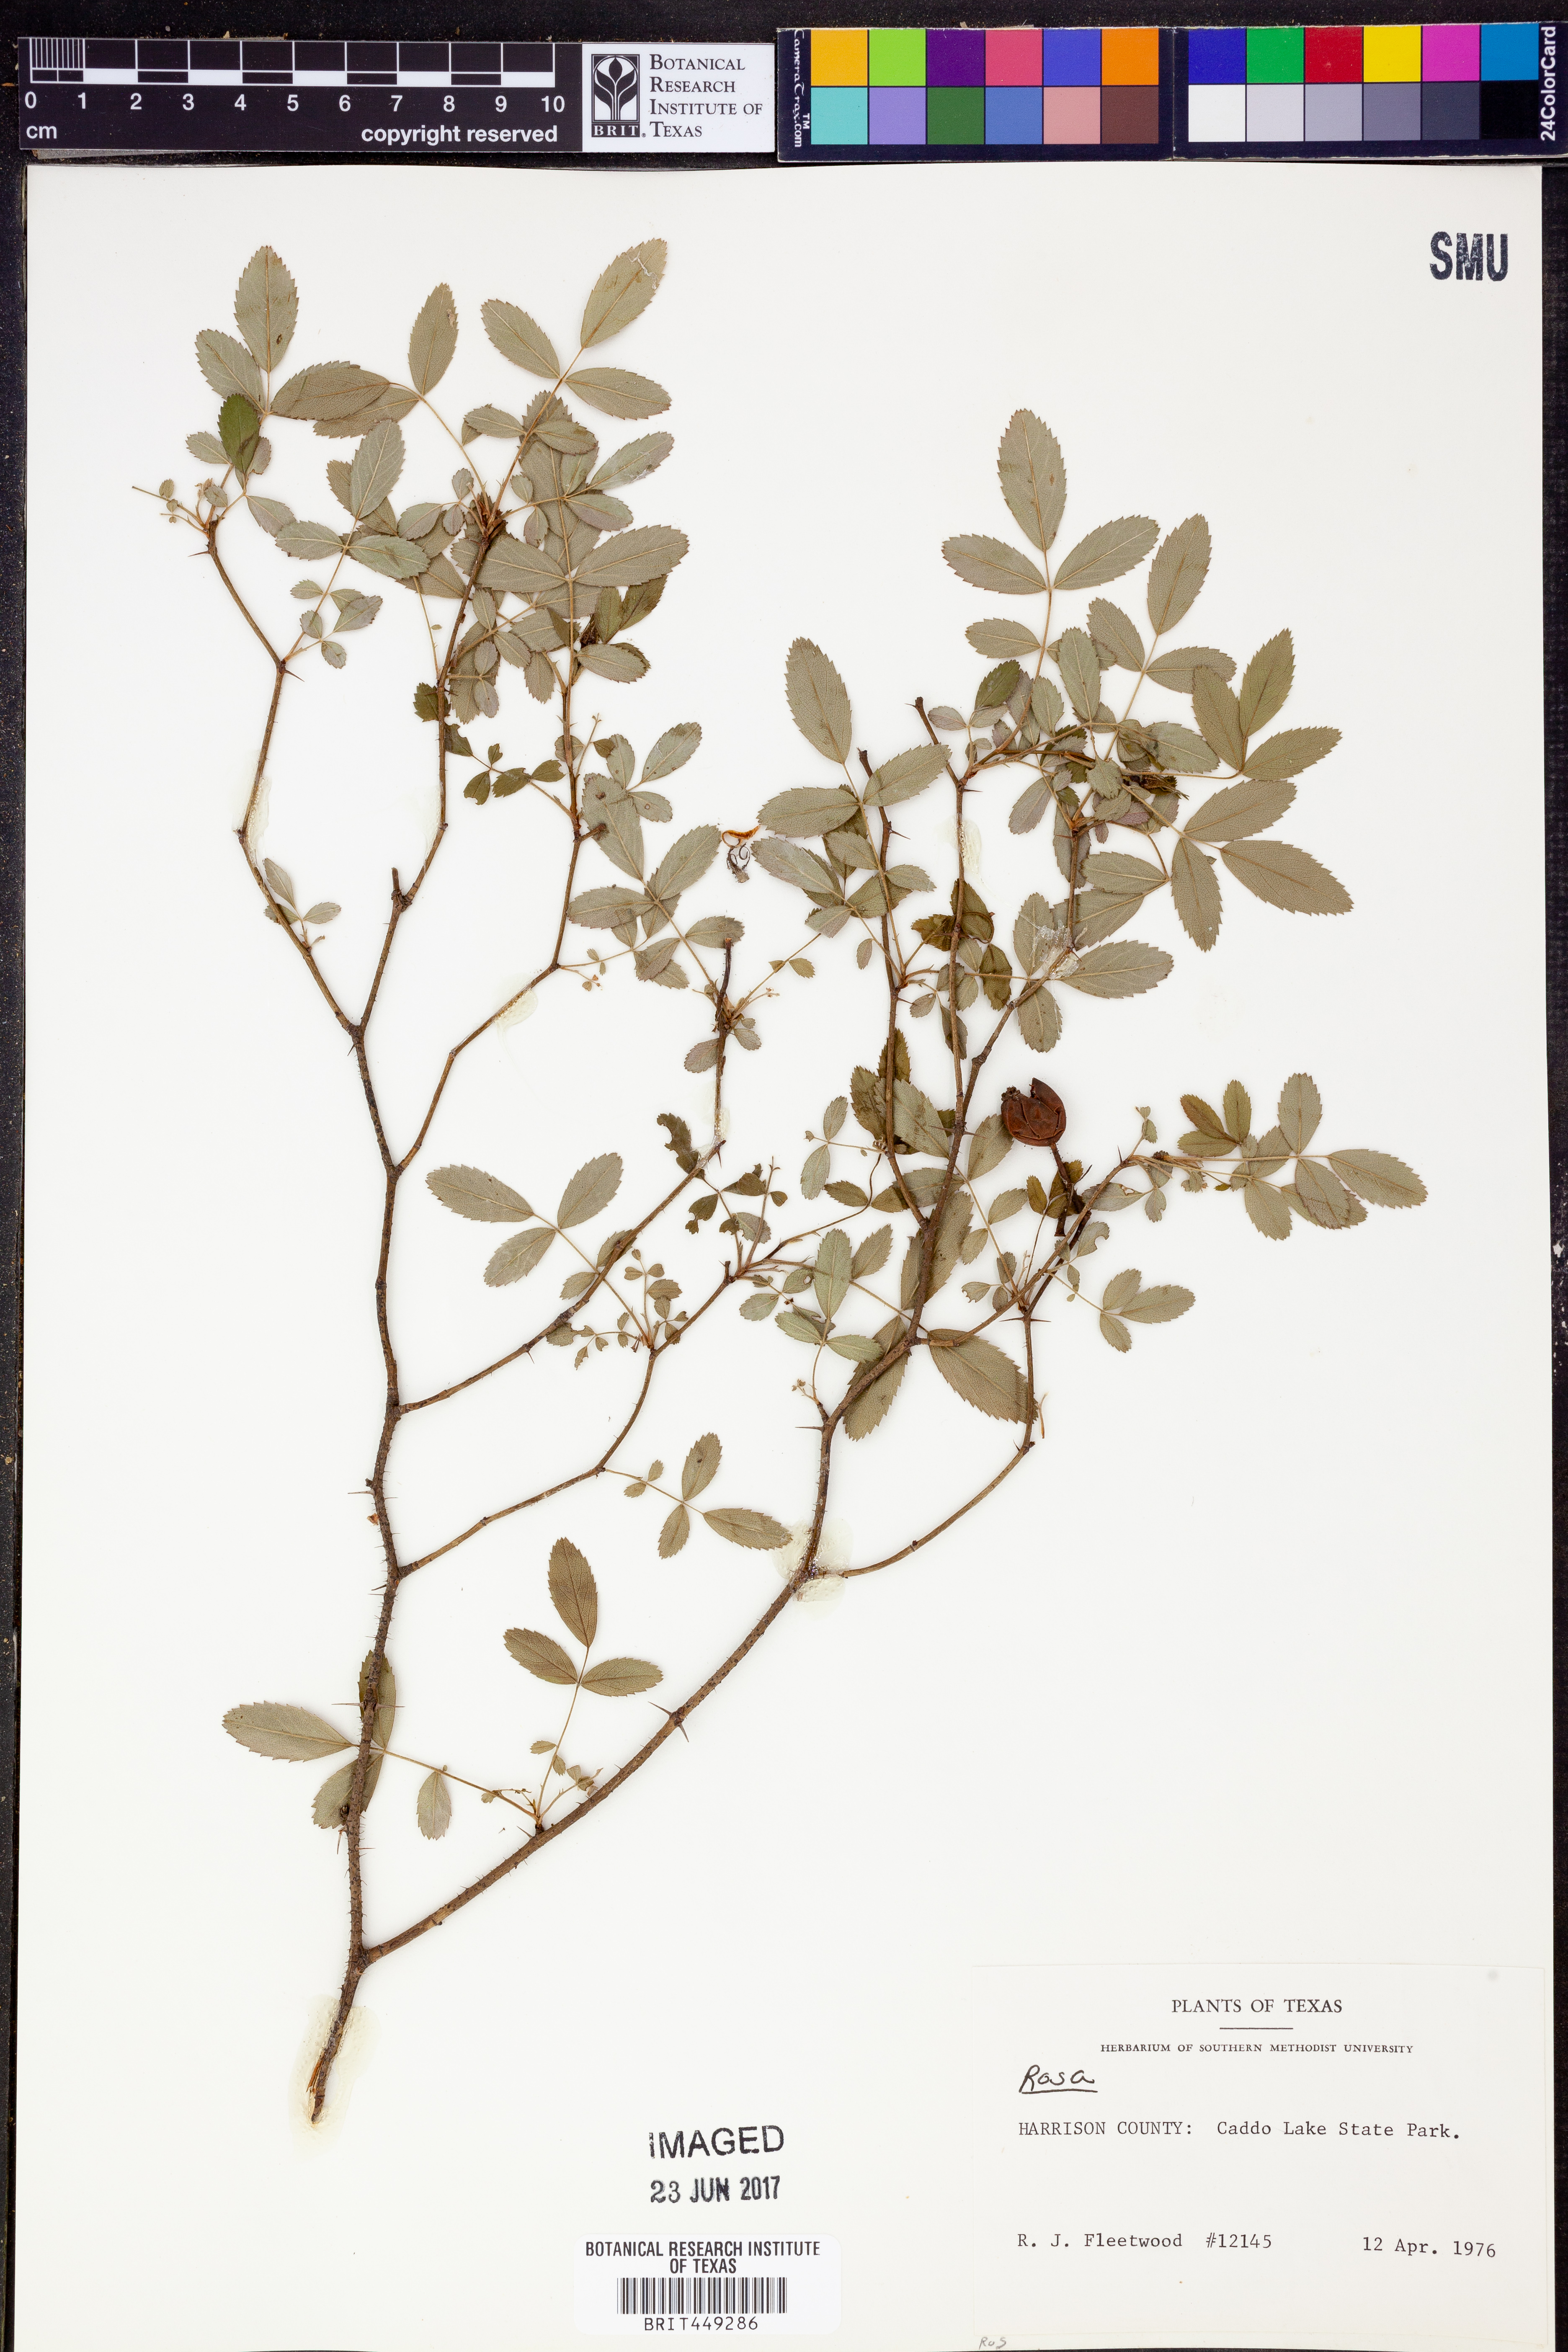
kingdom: Plantae
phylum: Tracheophyta
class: Magnoliopsida
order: Rosales
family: Rosaceae
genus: Rosa
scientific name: Rosa
